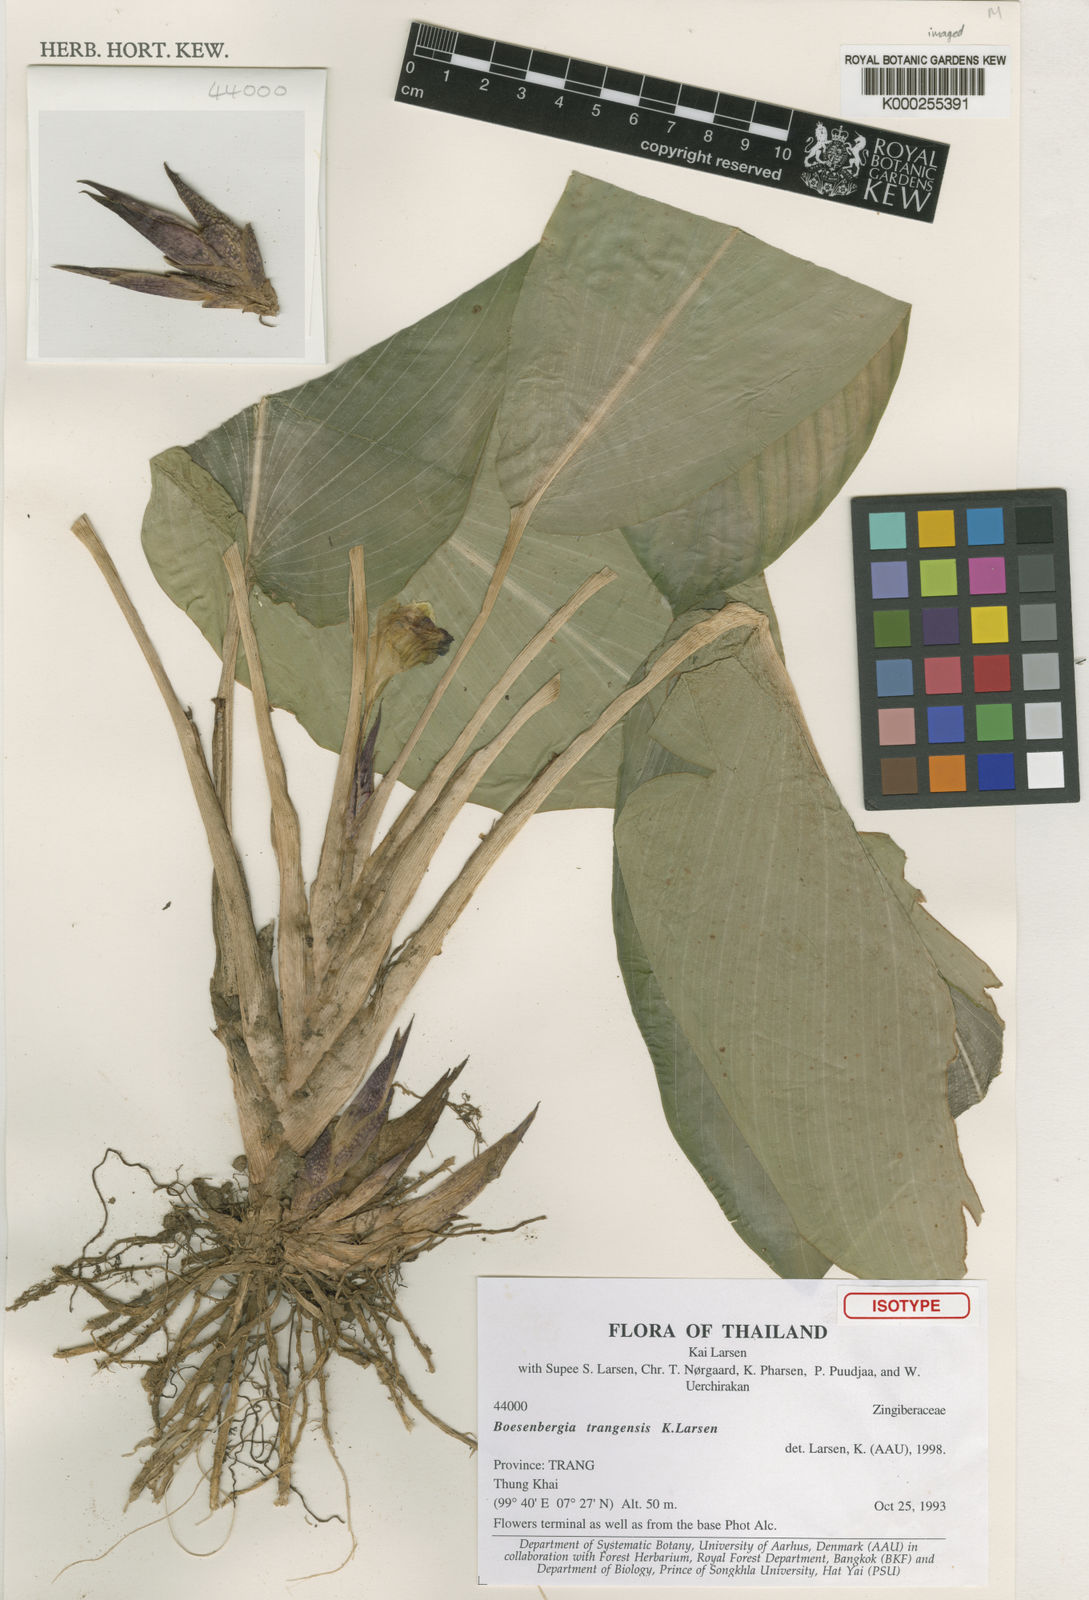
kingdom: Plantae
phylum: Tracheophyta
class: Liliopsida
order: Zingiberales
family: Zingiberaceae
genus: Boesenbergia
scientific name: Boesenbergia trangensis
